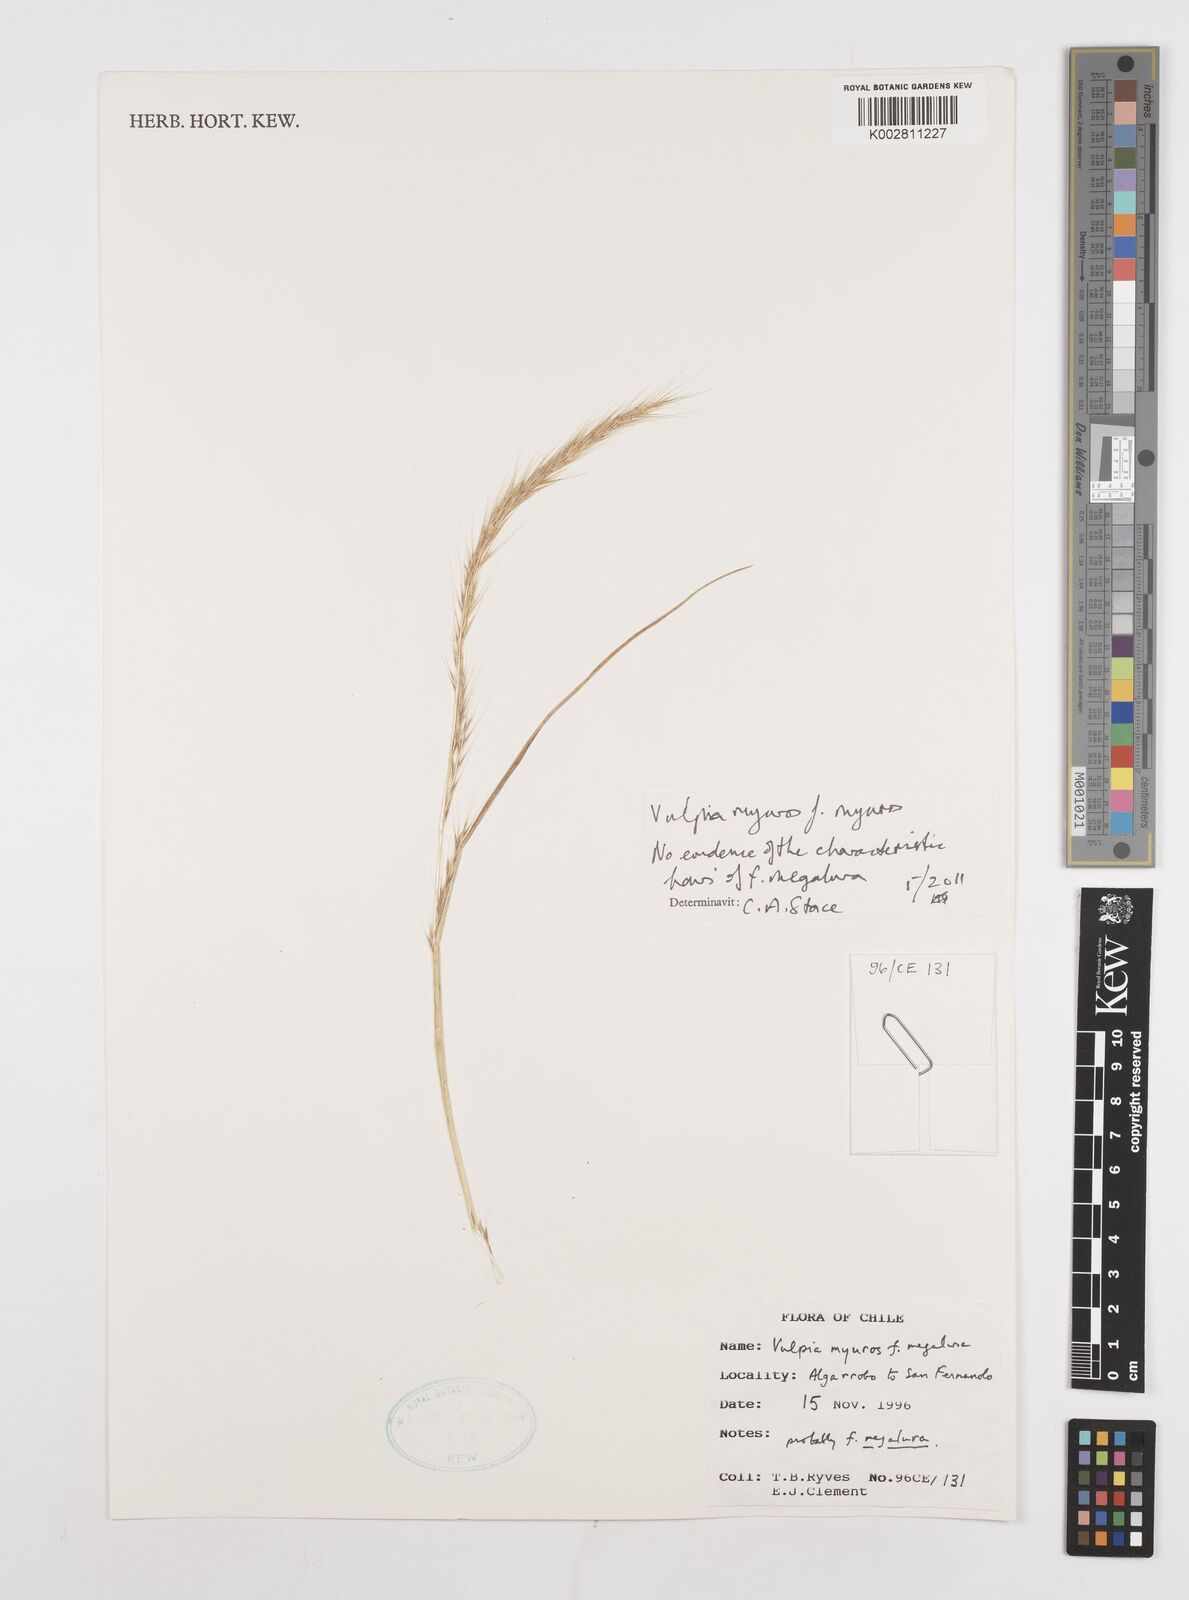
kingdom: Plantae
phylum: Tracheophyta
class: Liliopsida
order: Poales
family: Poaceae
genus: Festuca
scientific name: Festuca myuros
